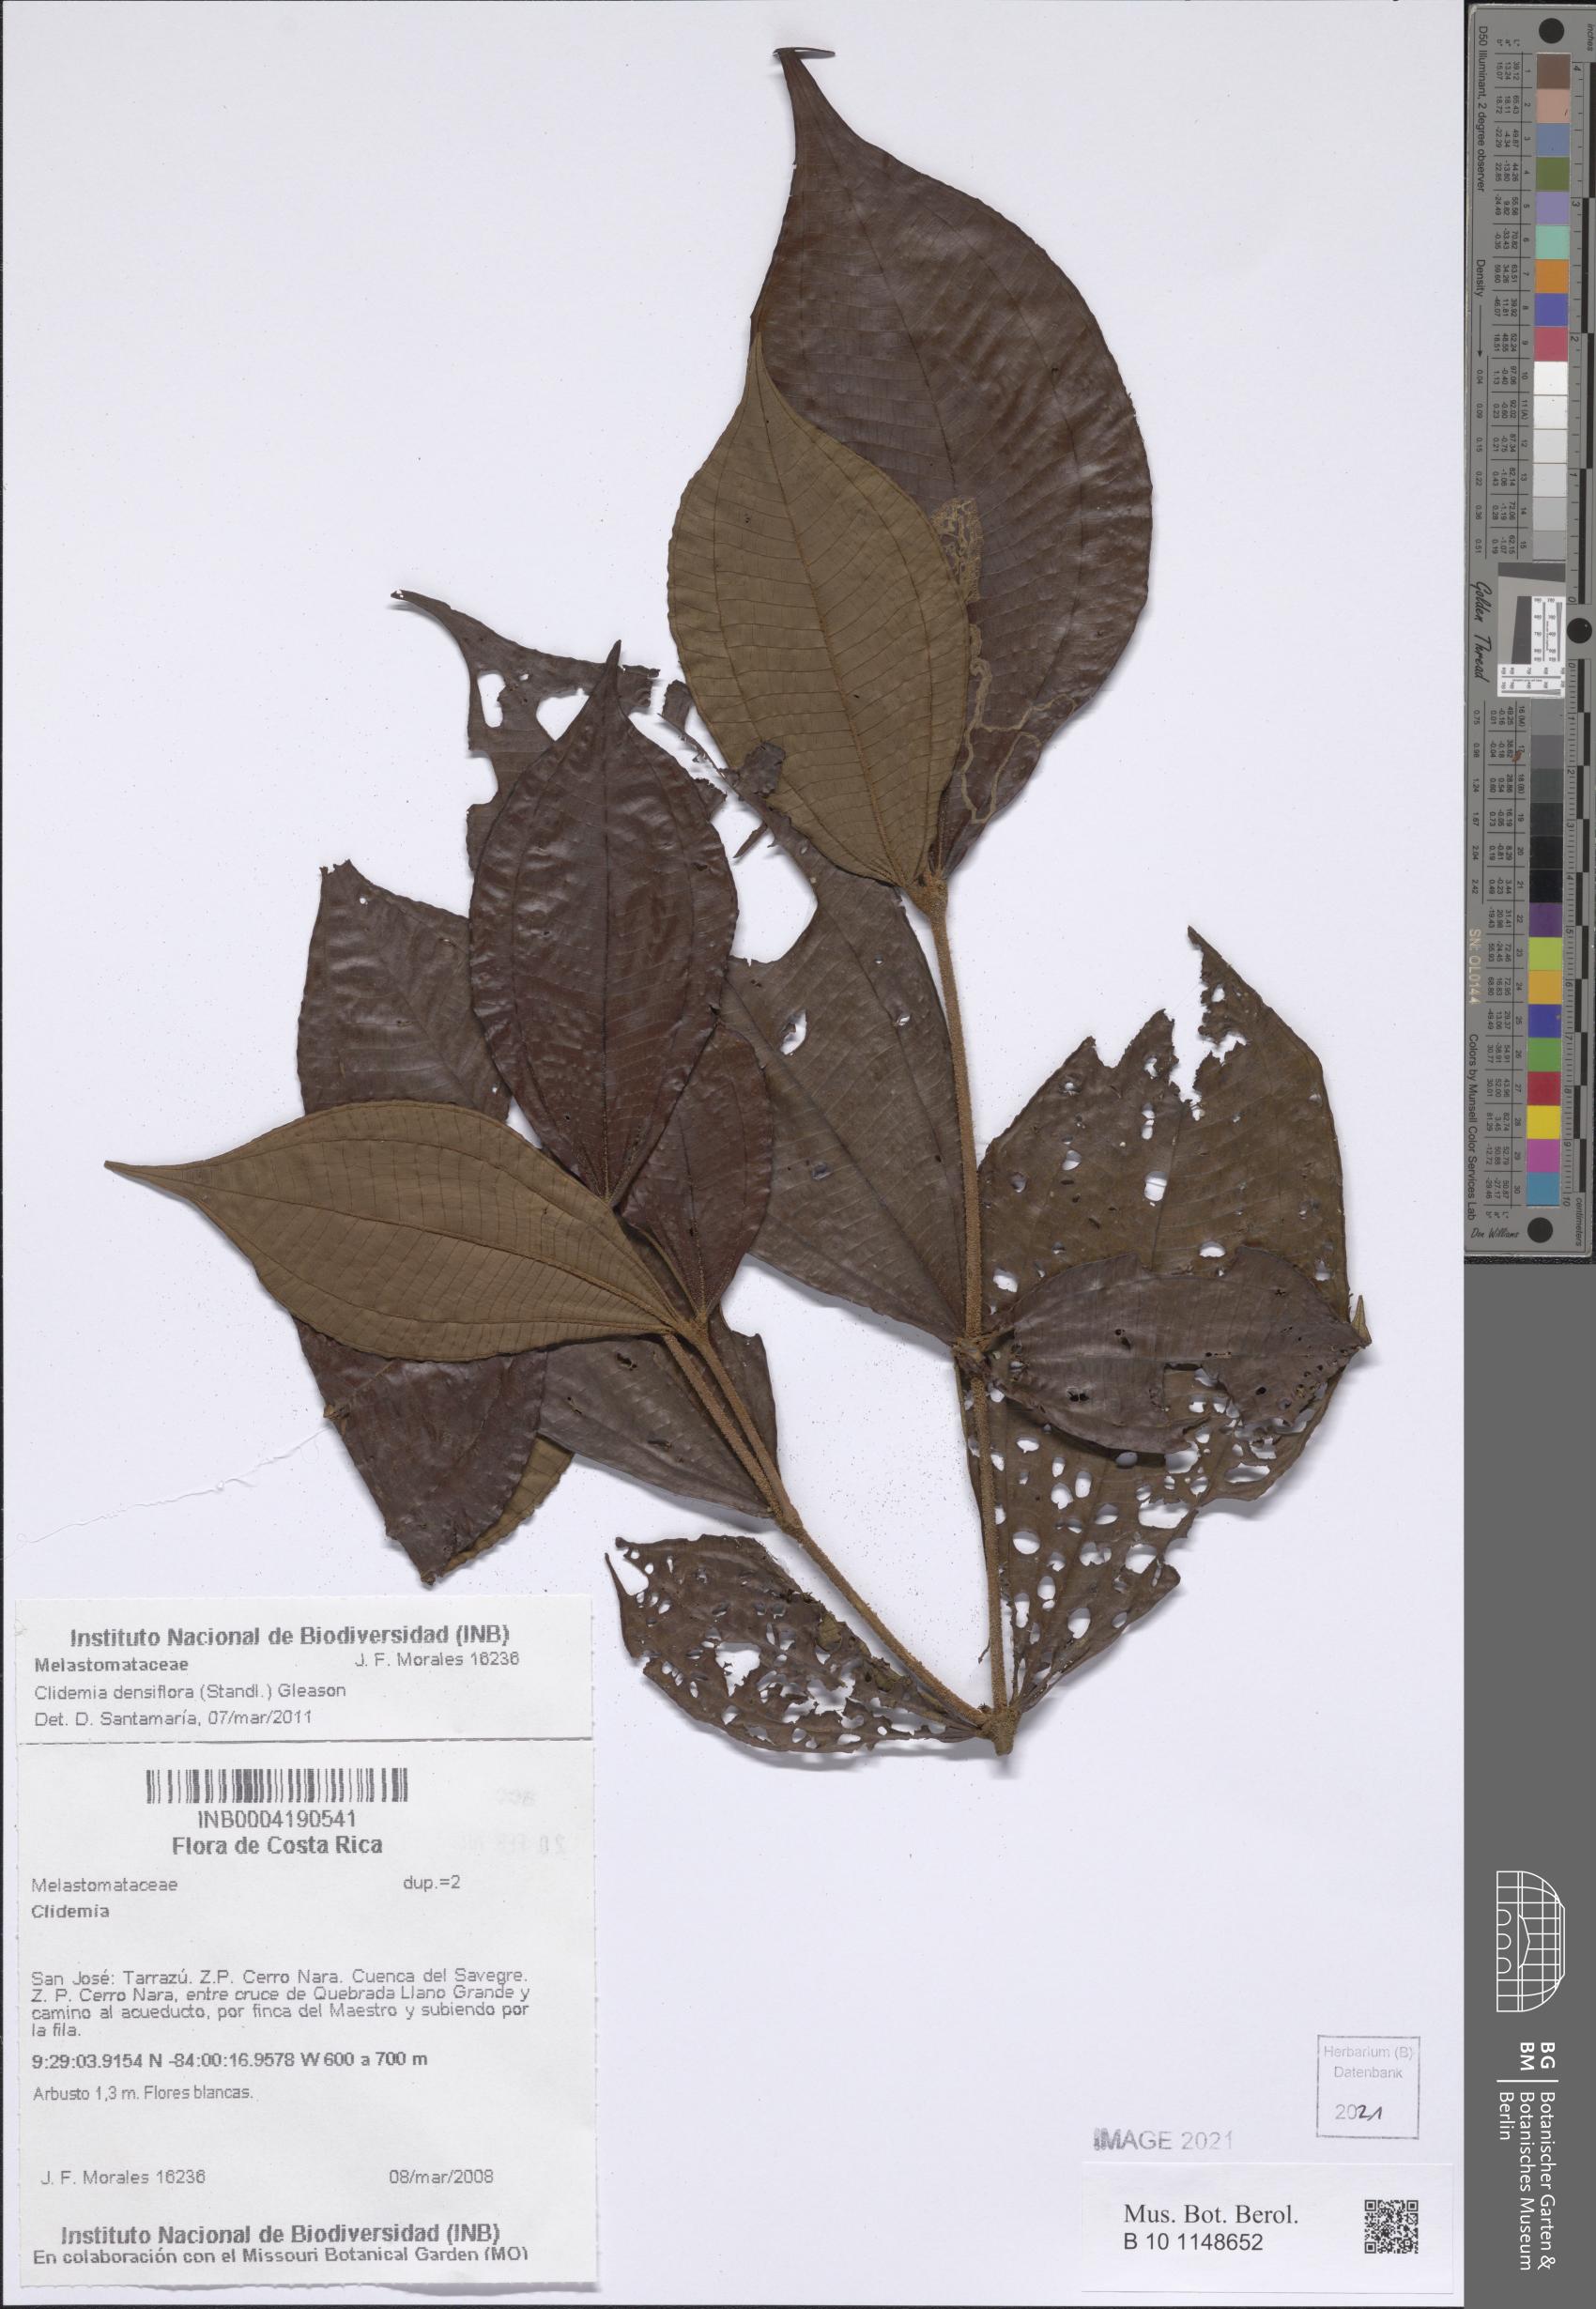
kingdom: Plantae
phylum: Tracheophyta
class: Magnoliopsida
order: Myrtales
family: Melastomataceae
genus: Miconia
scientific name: Miconia approximata
